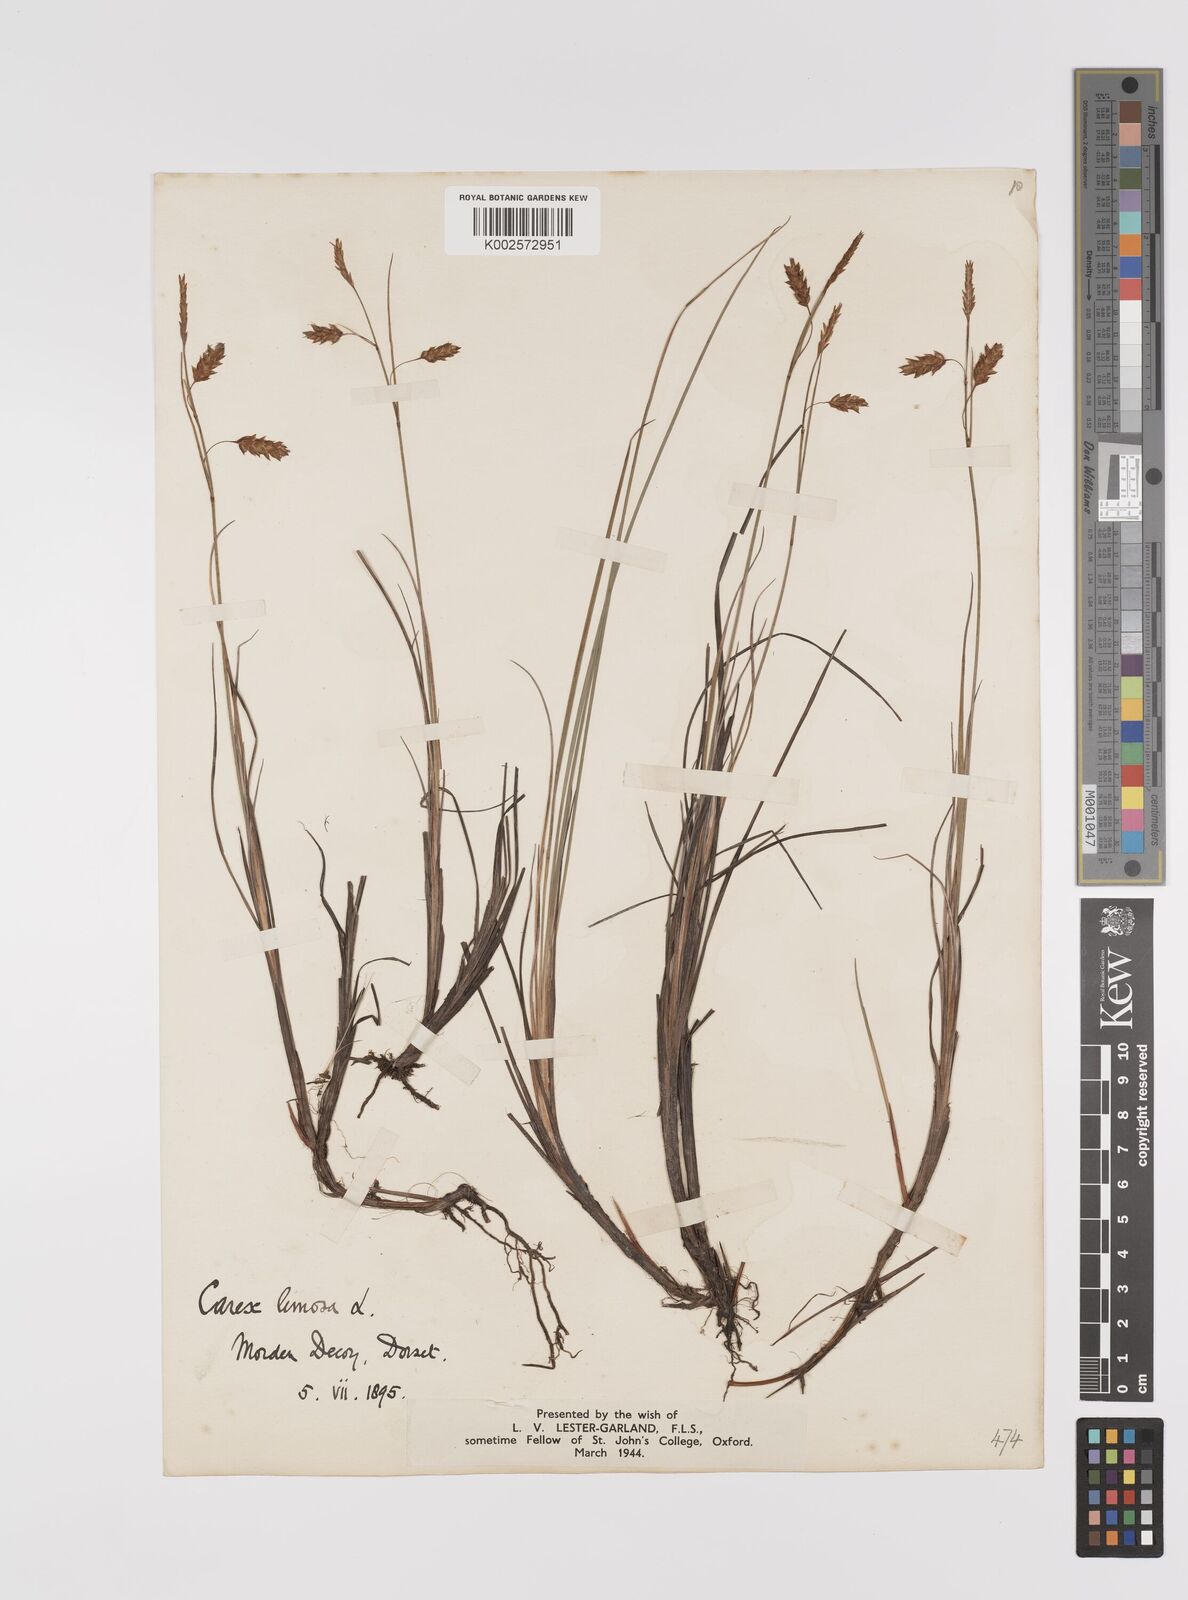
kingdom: Plantae
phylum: Tracheophyta
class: Liliopsida
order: Poales
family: Cyperaceae
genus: Carex
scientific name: Carex limosa
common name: Bog sedge
